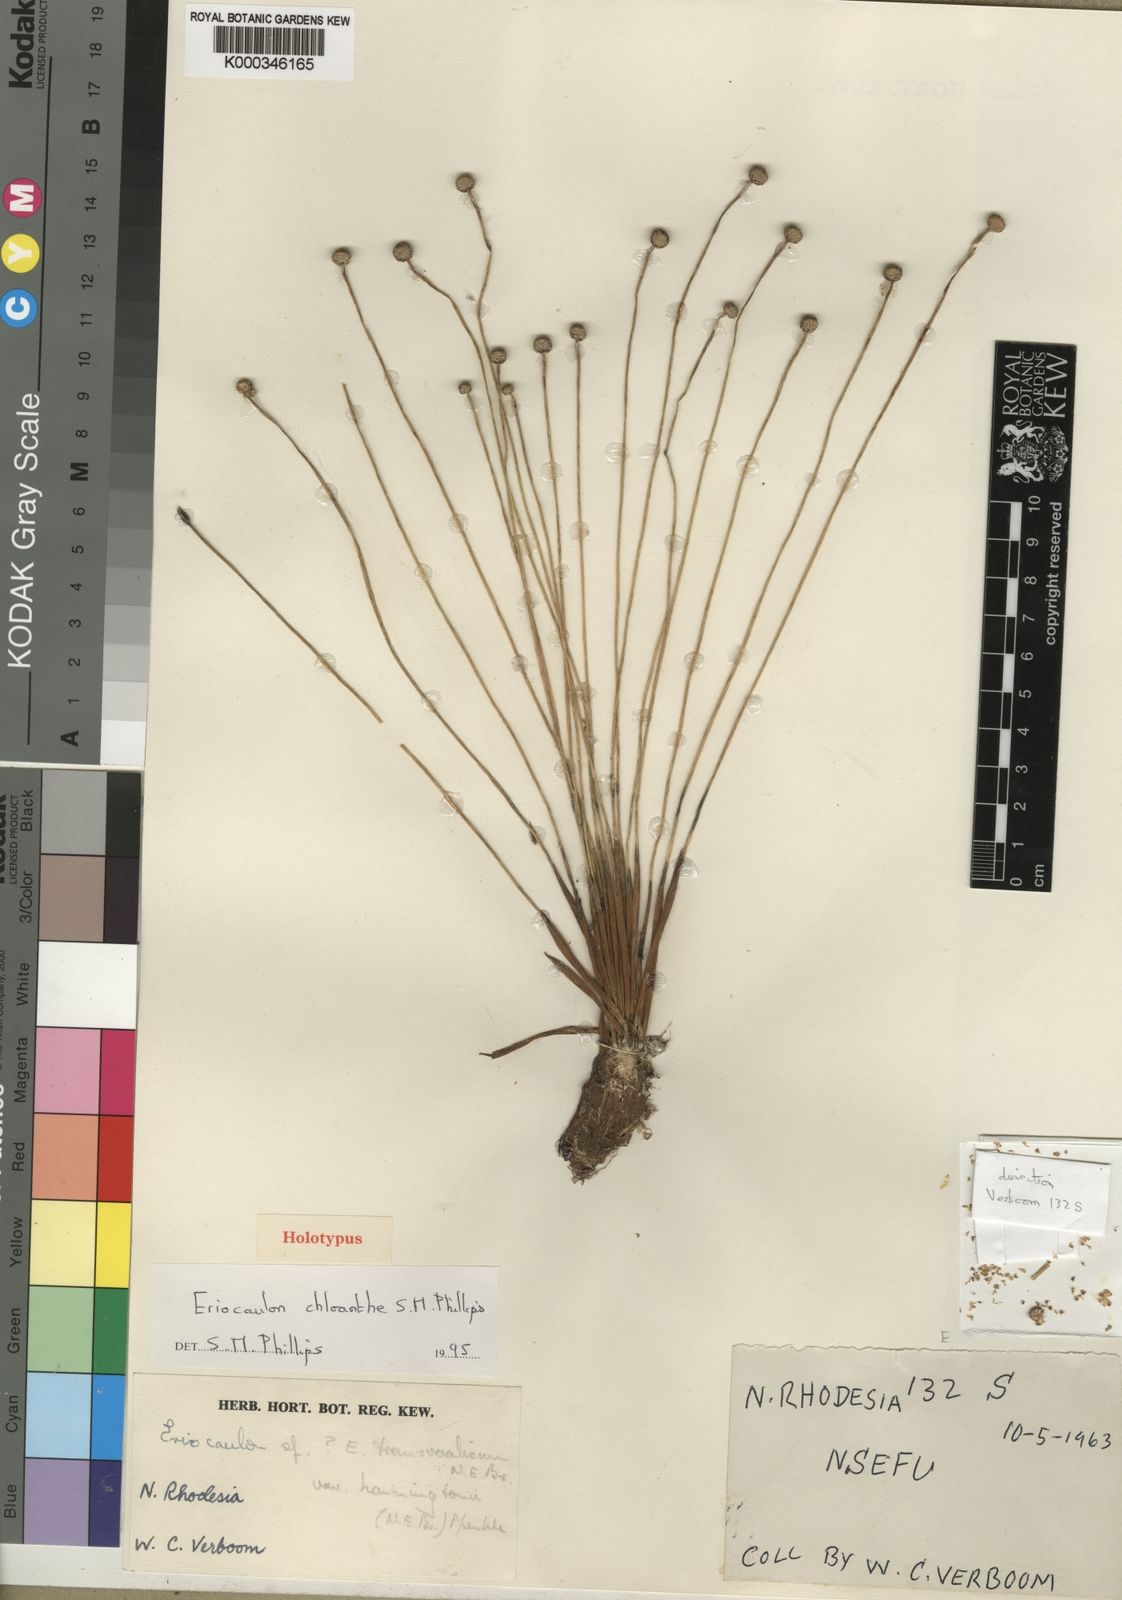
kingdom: Plantae
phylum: Tracheophyta
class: Liliopsida
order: Poales
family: Eriocaulaceae
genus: Eriocaulon
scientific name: Eriocaulon chloanthe
